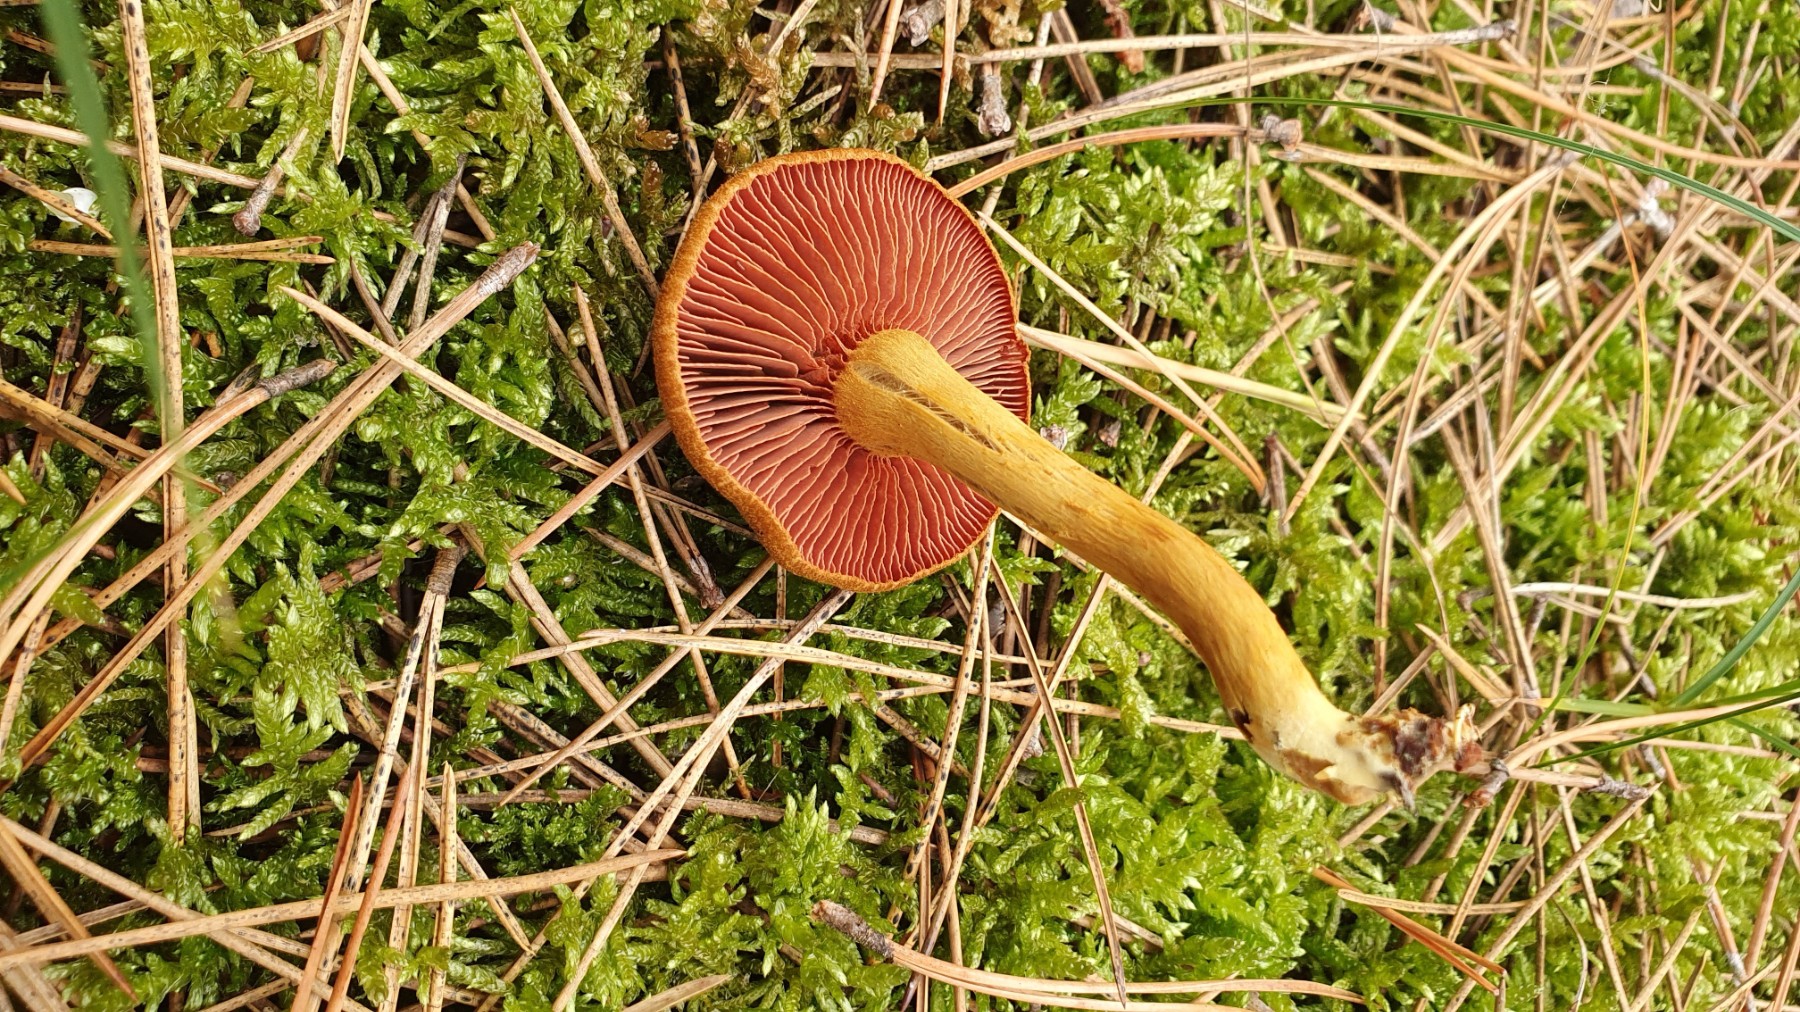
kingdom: Fungi
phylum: Basidiomycota
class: Agaricomycetes
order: Agaricales
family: Cortinariaceae
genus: Cortinarius
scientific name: Cortinarius
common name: cinnoberbladet slørhat
